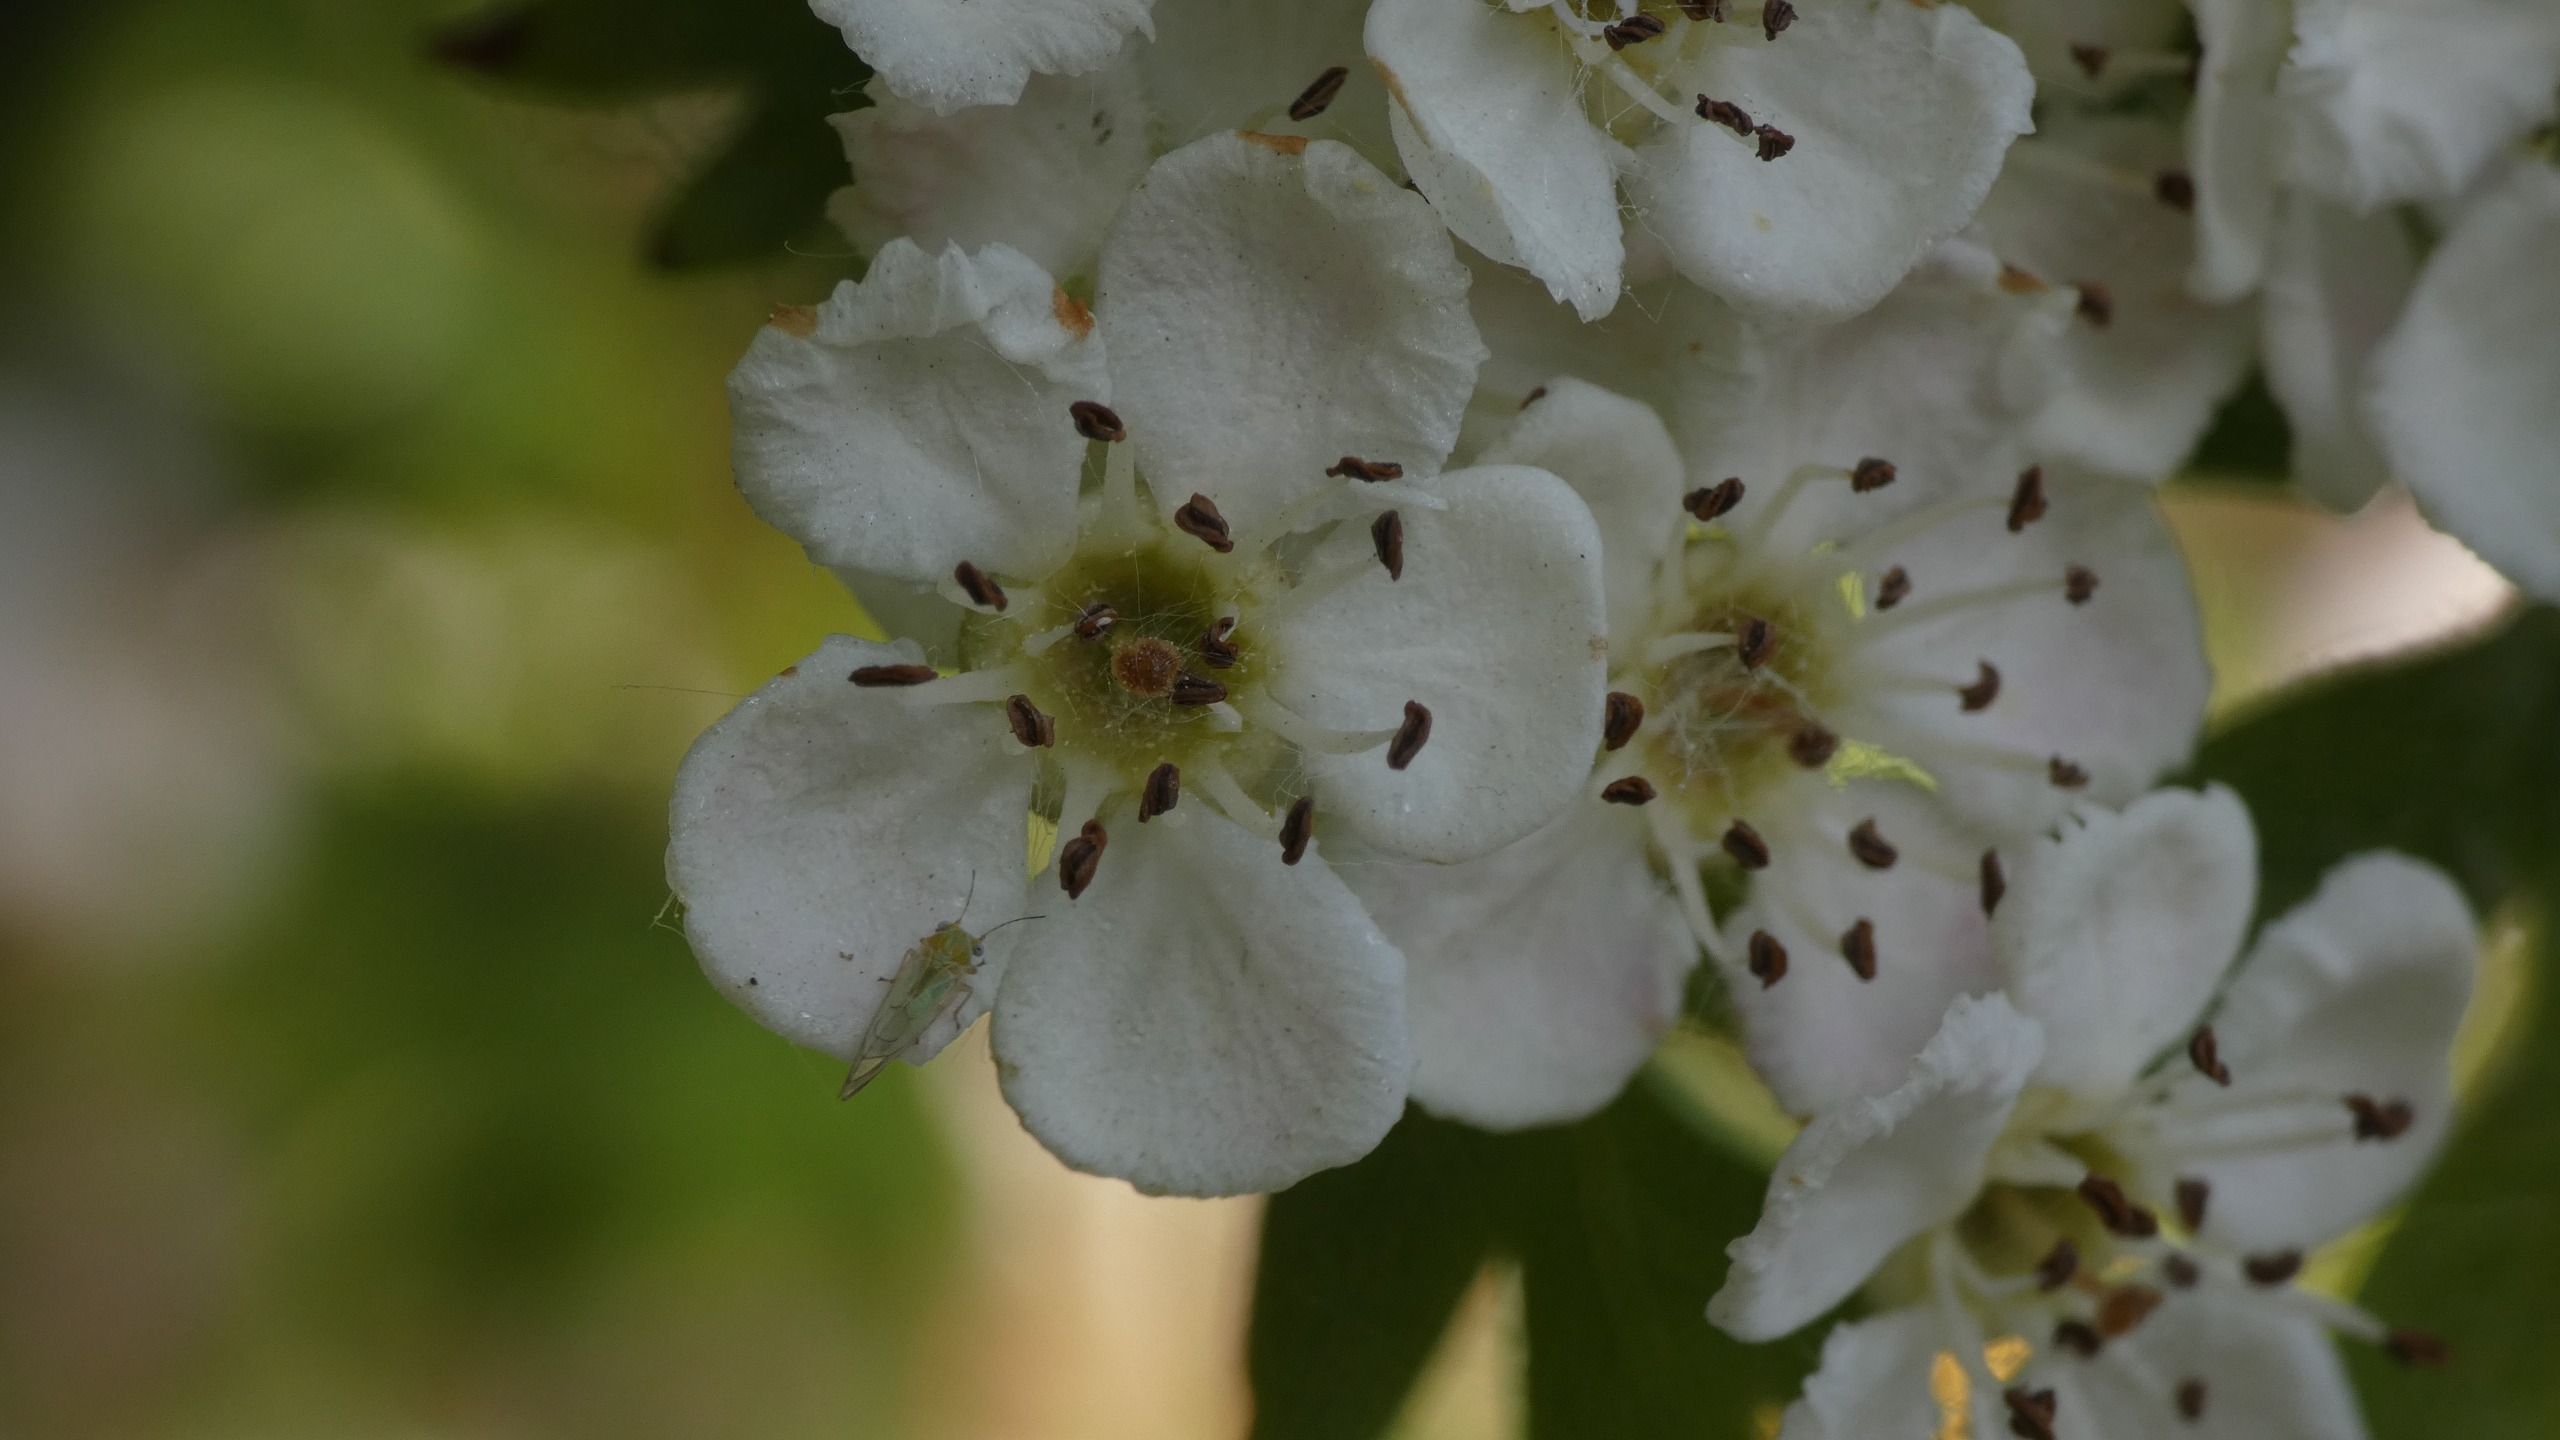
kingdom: Plantae
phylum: Tracheophyta
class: Magnoliopsida
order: Rosales
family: Rosaceae
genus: Crataegus
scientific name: Crataegus monogyna
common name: Engriflet hvidtjørn
